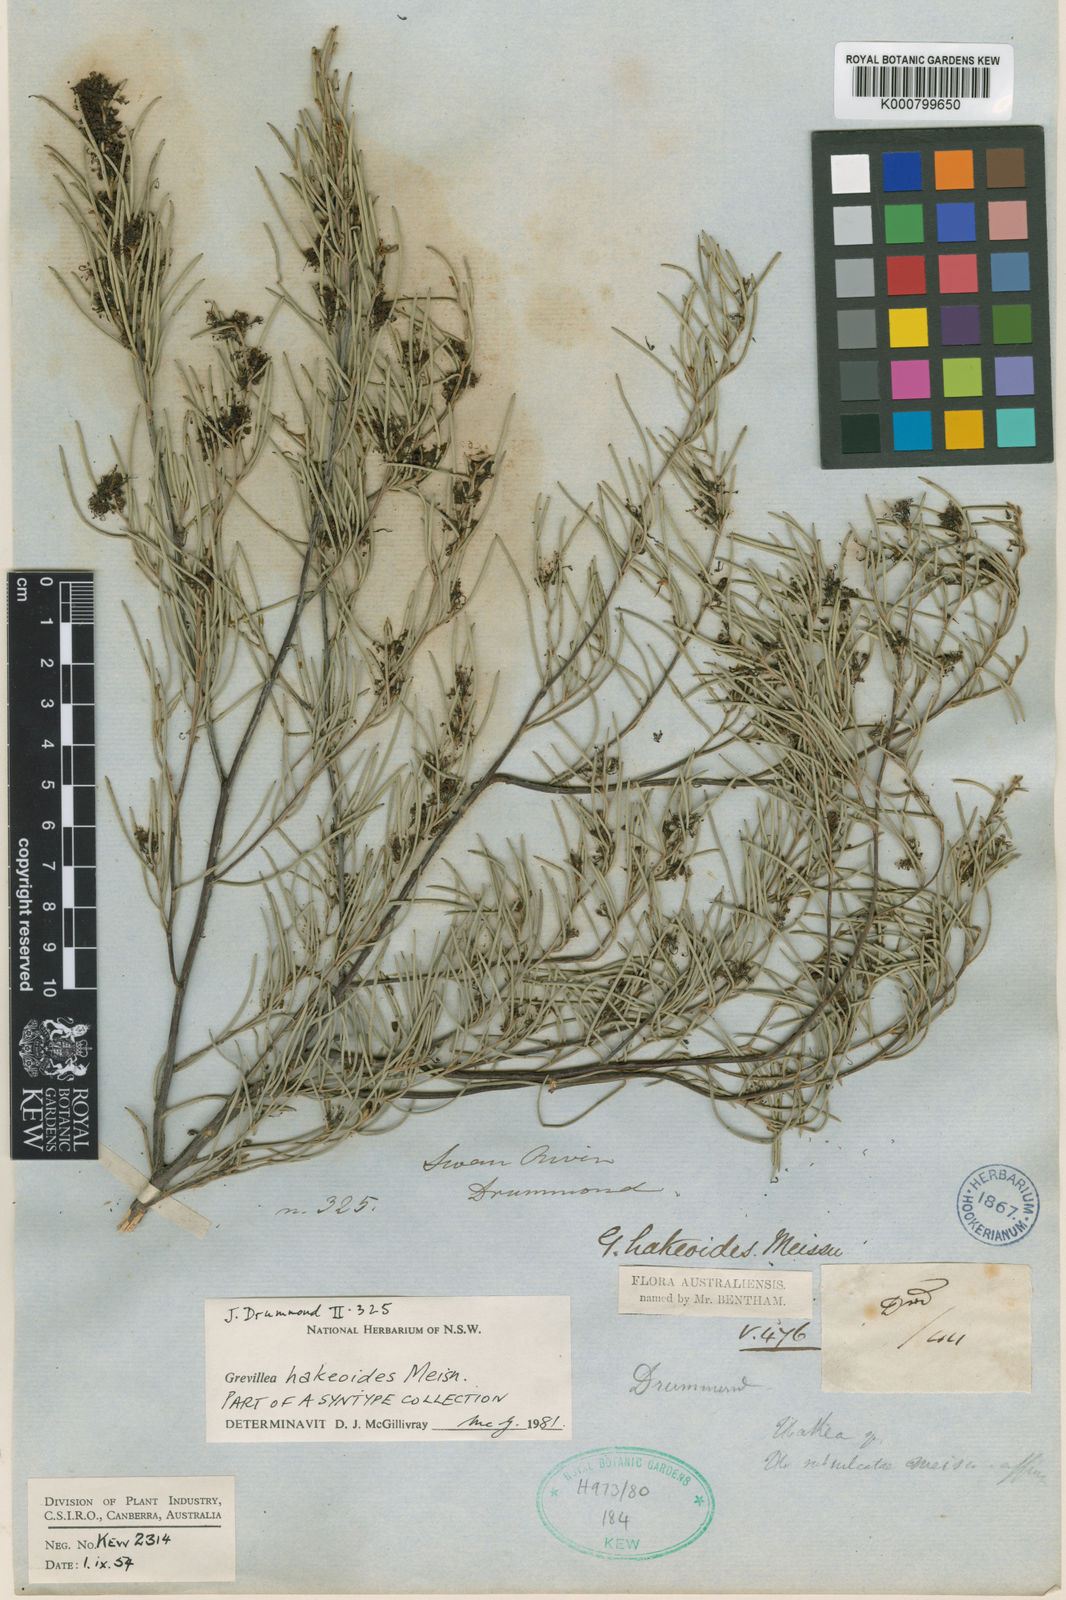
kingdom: Plantae
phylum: Tracheophyta
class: Magnoliopsida
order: Proteales
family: Proteaceae
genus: Grevillea
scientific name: Grevillea hakeoides
